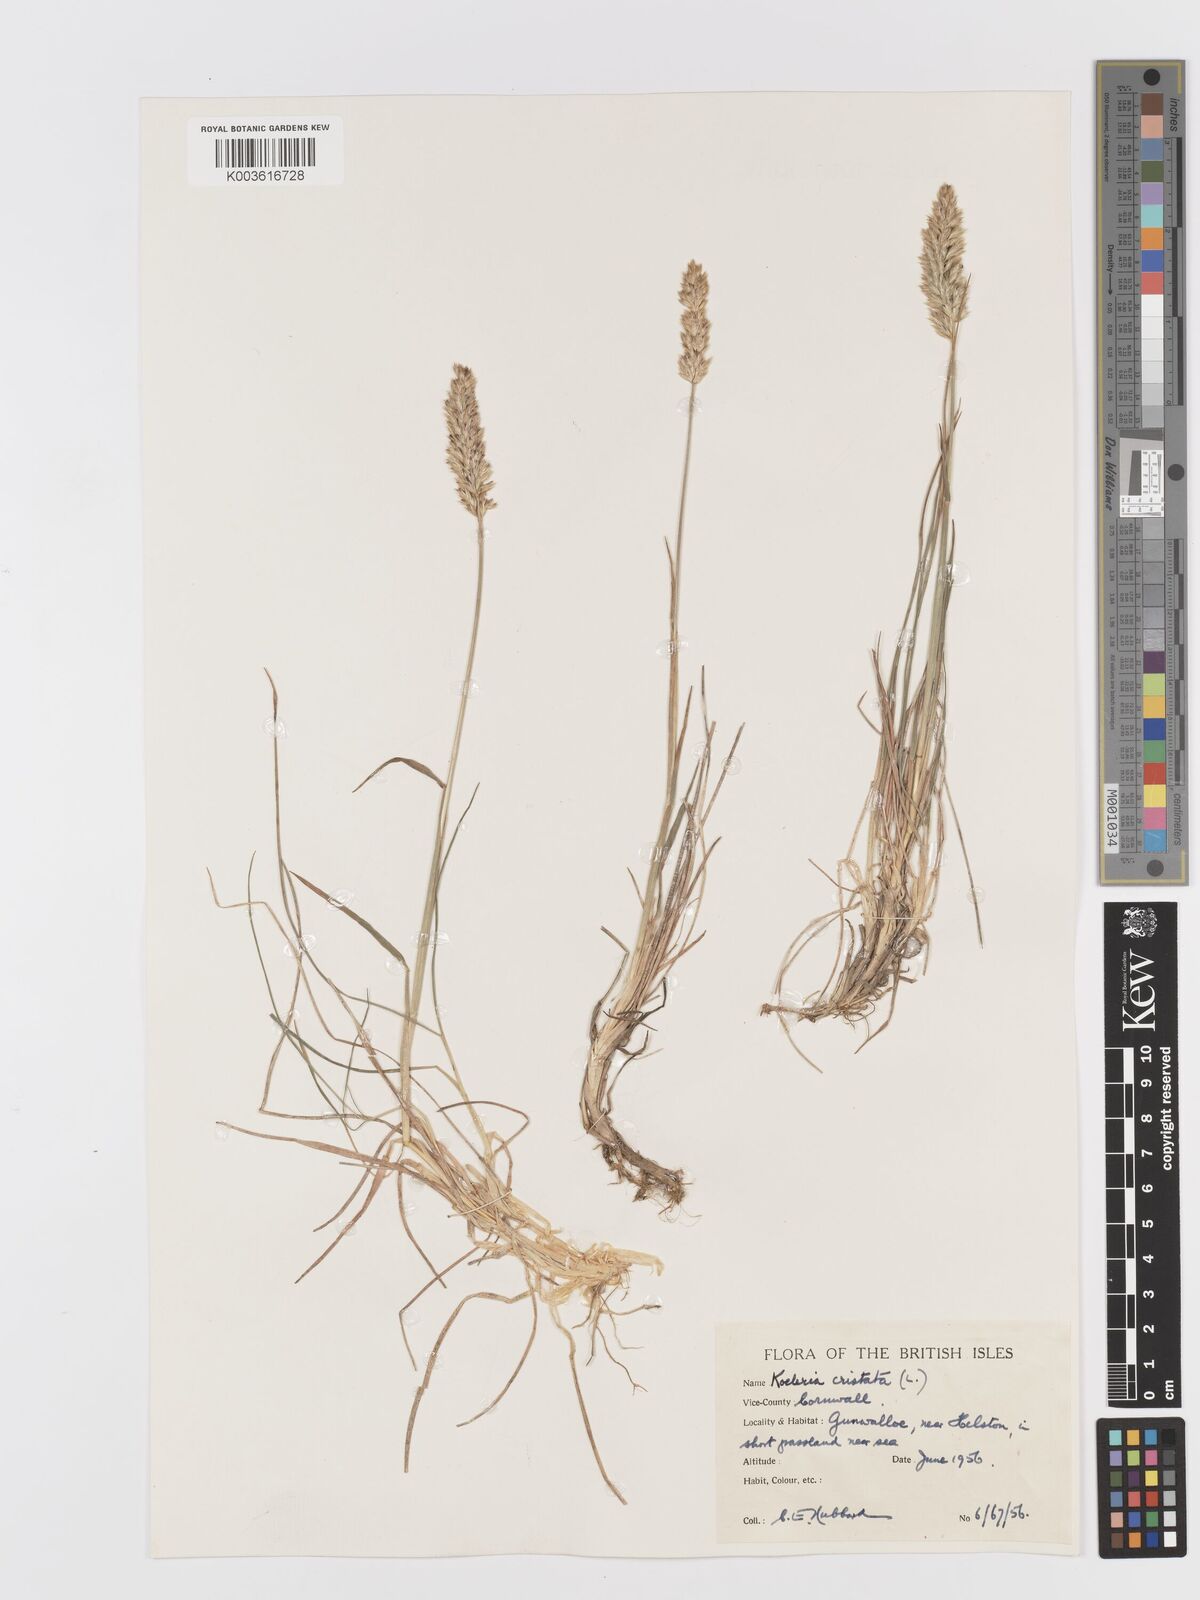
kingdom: Plantae
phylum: Tracheophyta
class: Liliopsida
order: Poales
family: Poaceae
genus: Koeleria
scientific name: Koeleria
